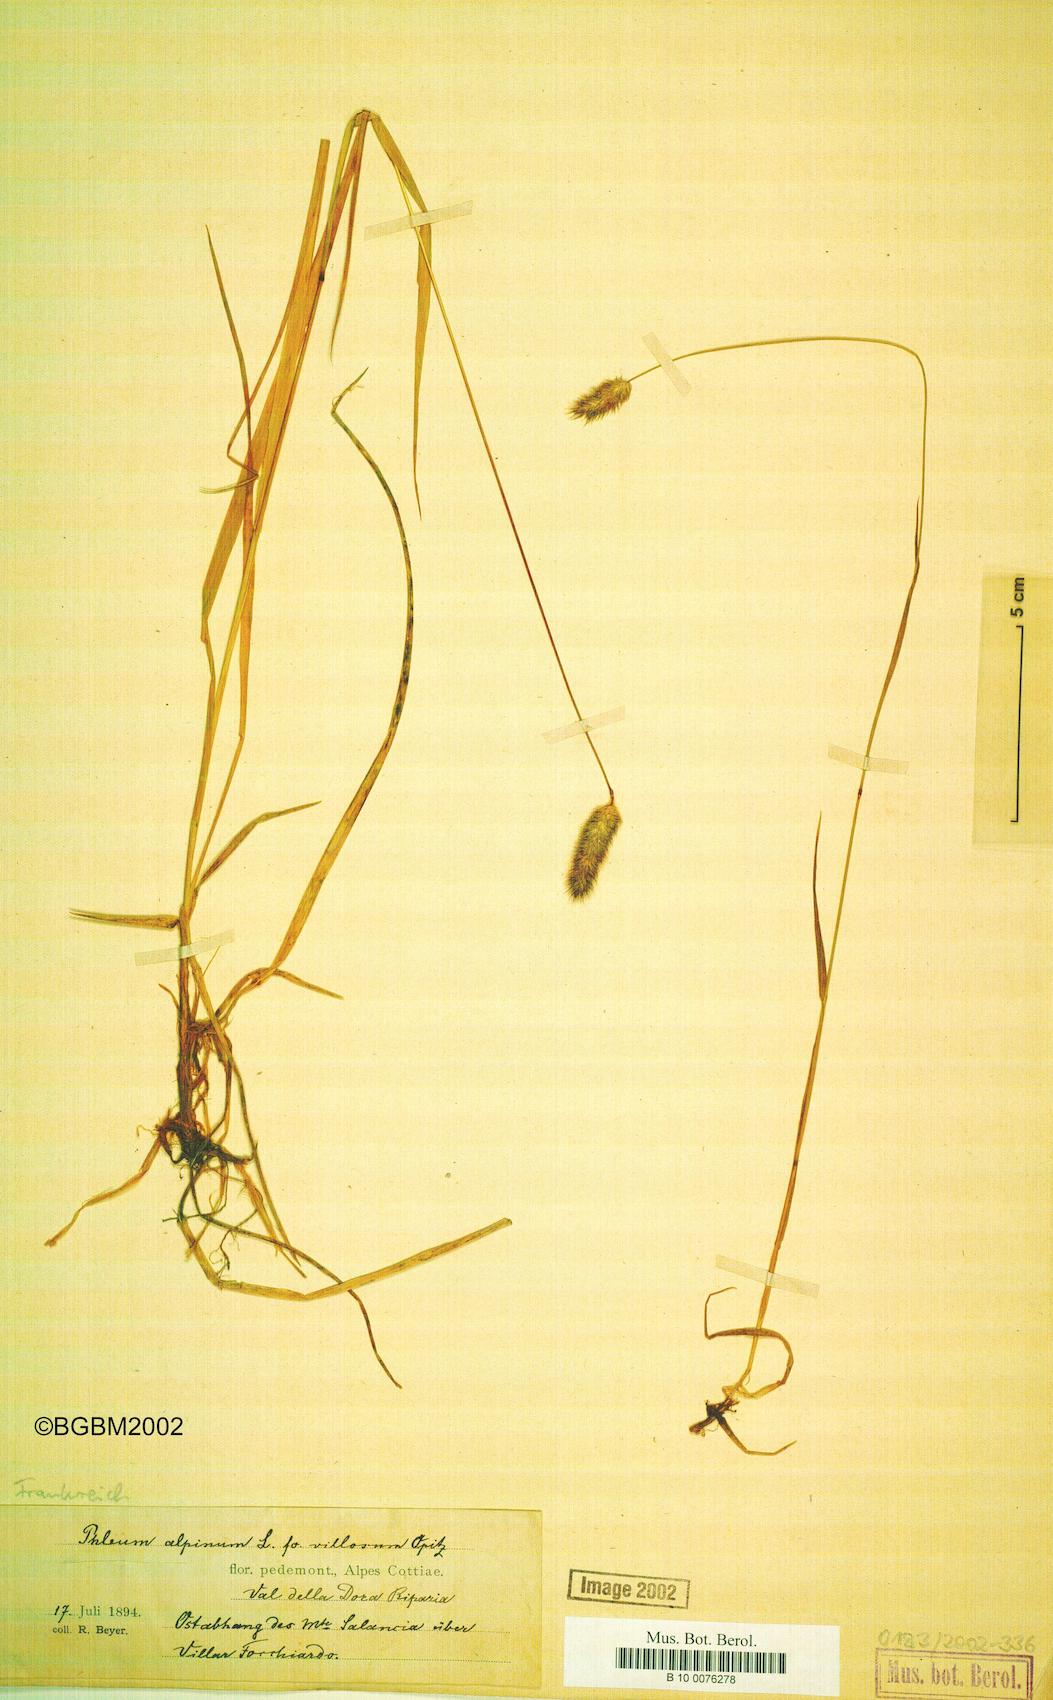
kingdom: Plantae
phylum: Tracheophyta
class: Liliopsida
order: Poales
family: Poaceae
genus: Phleum
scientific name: Phleum alpinum
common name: Alpine cat's-tail
